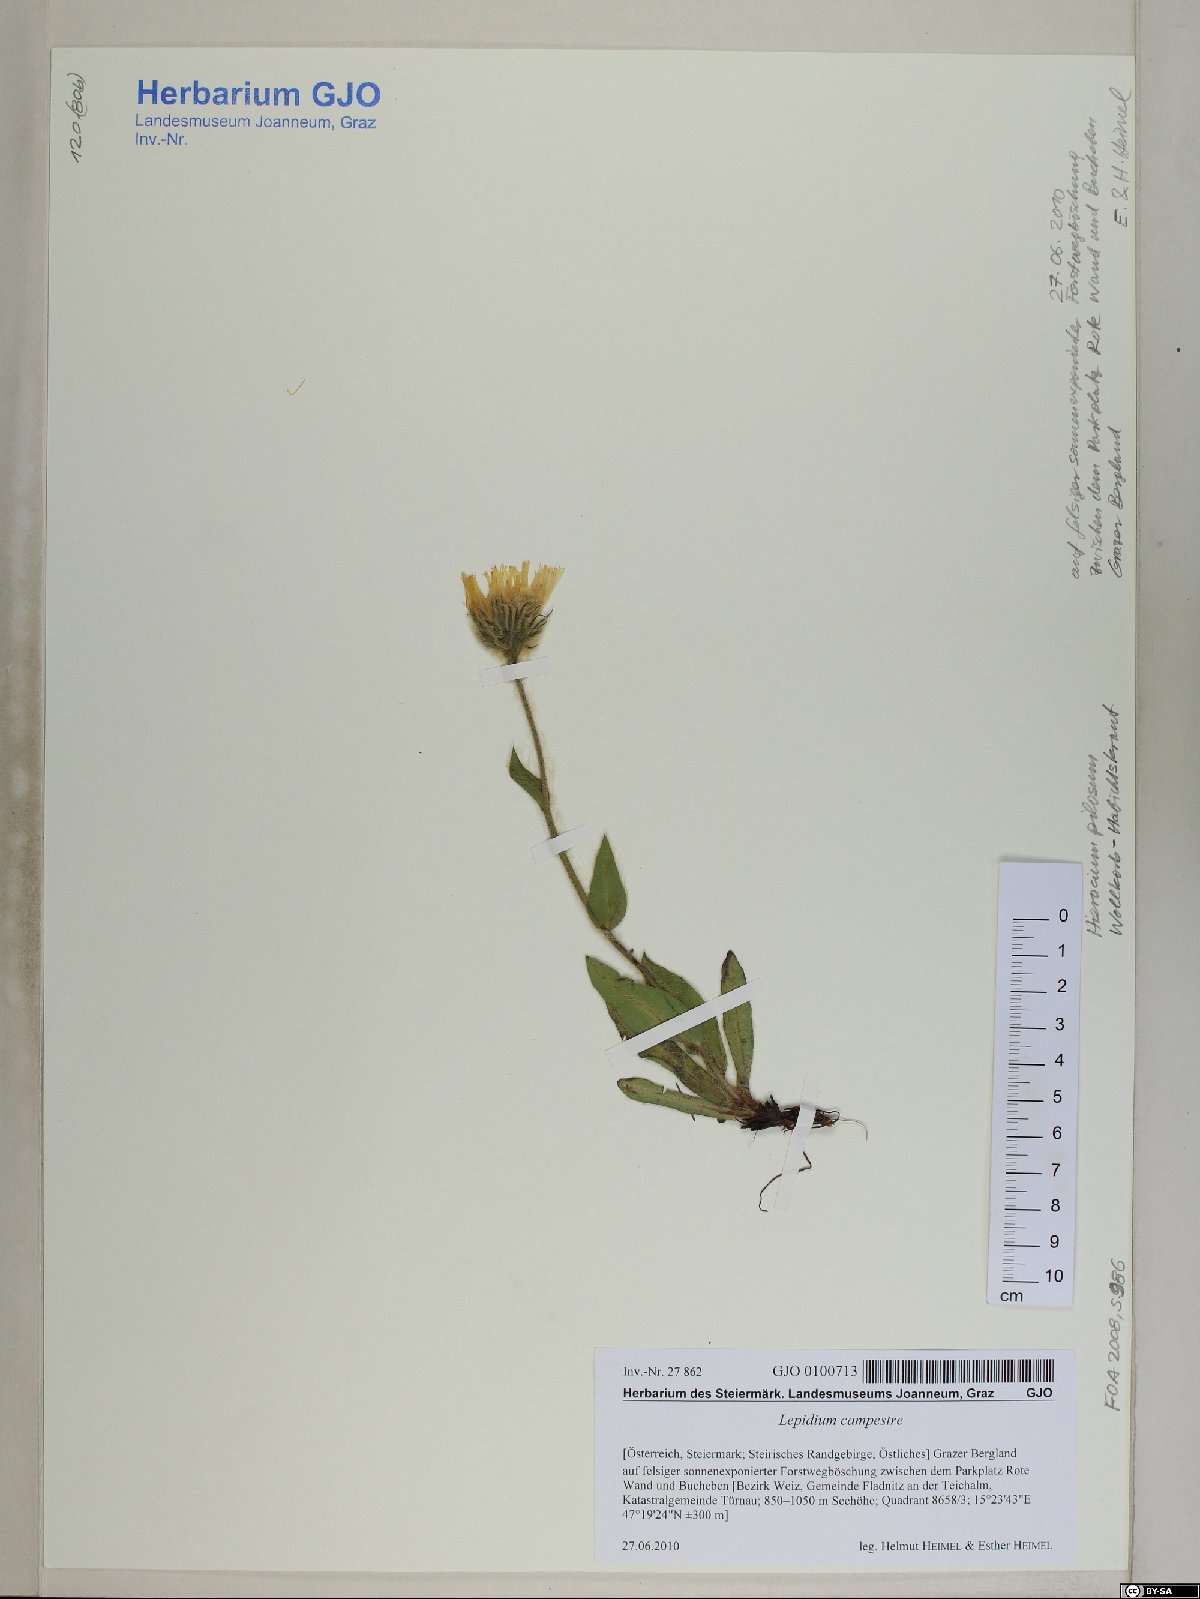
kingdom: Plantae
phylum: Tracheophyta
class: Magnoliopsida
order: Asterales
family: Asteraceae
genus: Hieracium
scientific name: Hieracium pilosum
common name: Fimbriate-pitted hawkweed
